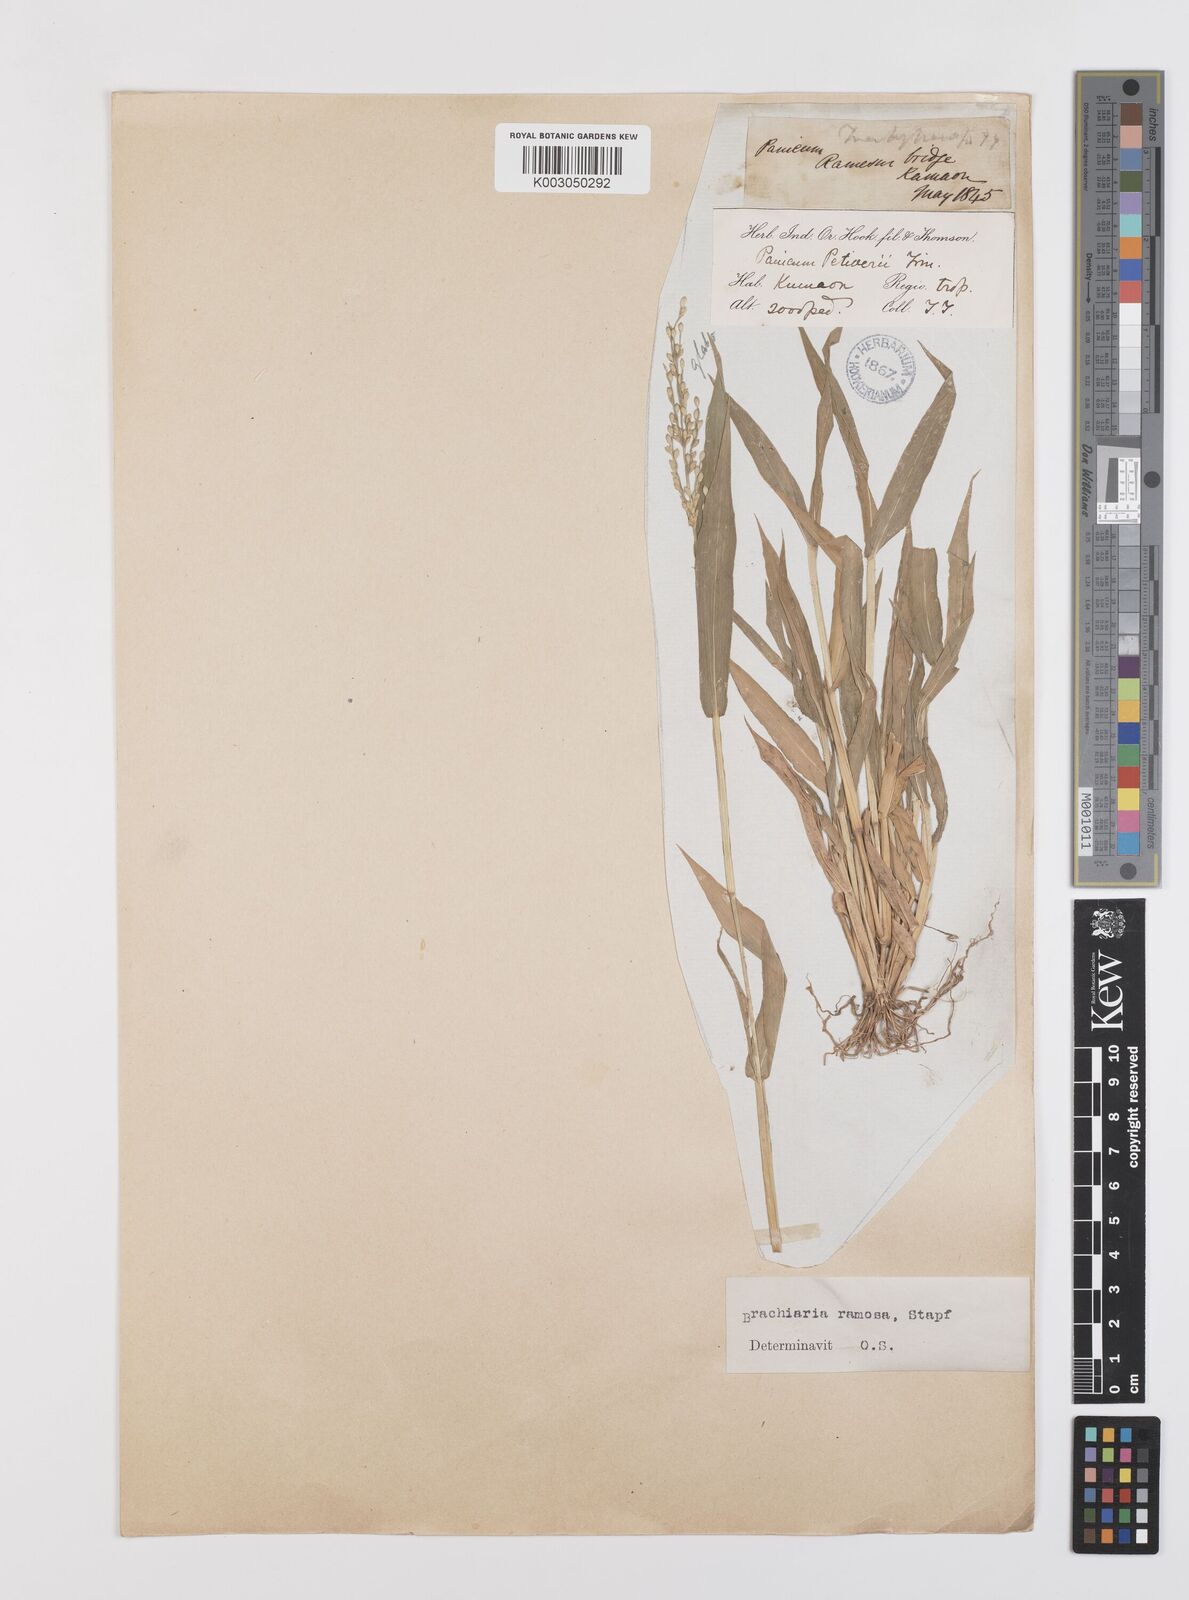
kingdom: Plantae
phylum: Tracheophyta
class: Liliopsida
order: Poales
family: Poaceae
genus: Urochloa
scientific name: Urochloa ramosa
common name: Browntop millet
